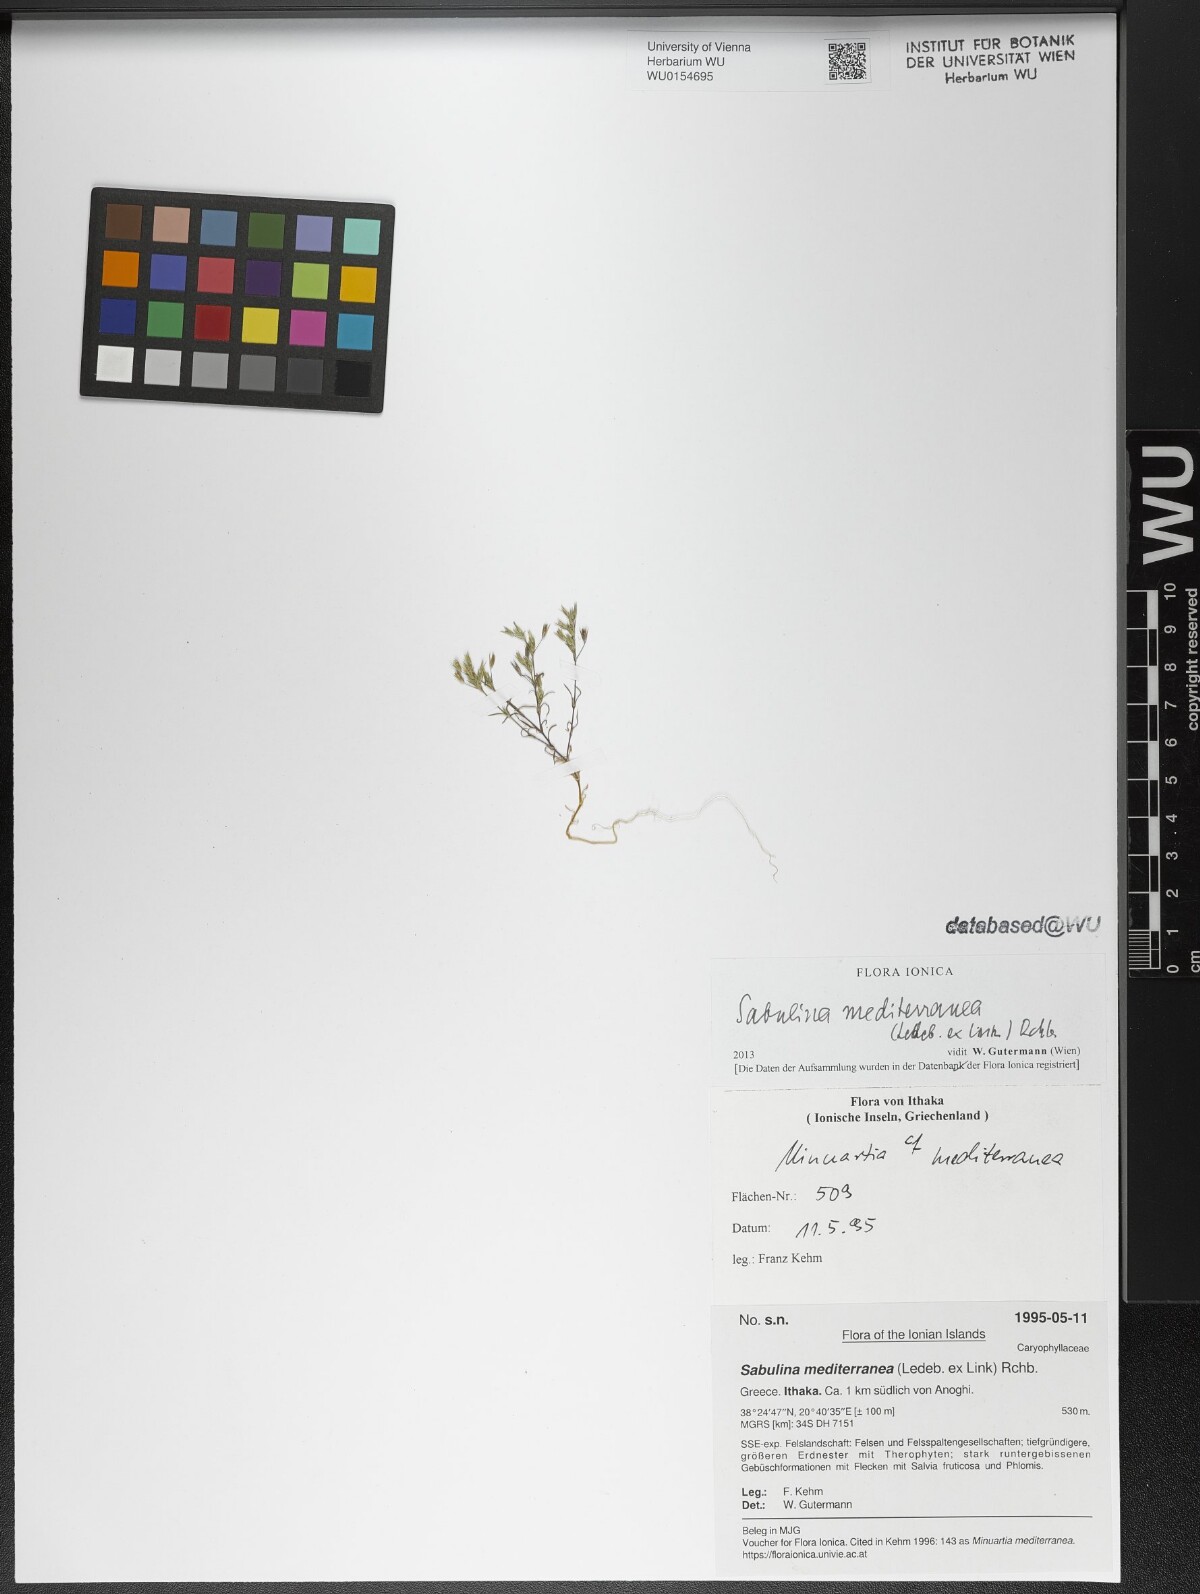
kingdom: Plantae
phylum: Tracheophyta
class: Magnoliopsida
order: Caryophyllales
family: Caryophyllaceae
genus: Sabulina
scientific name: Sabulina mediterranea
